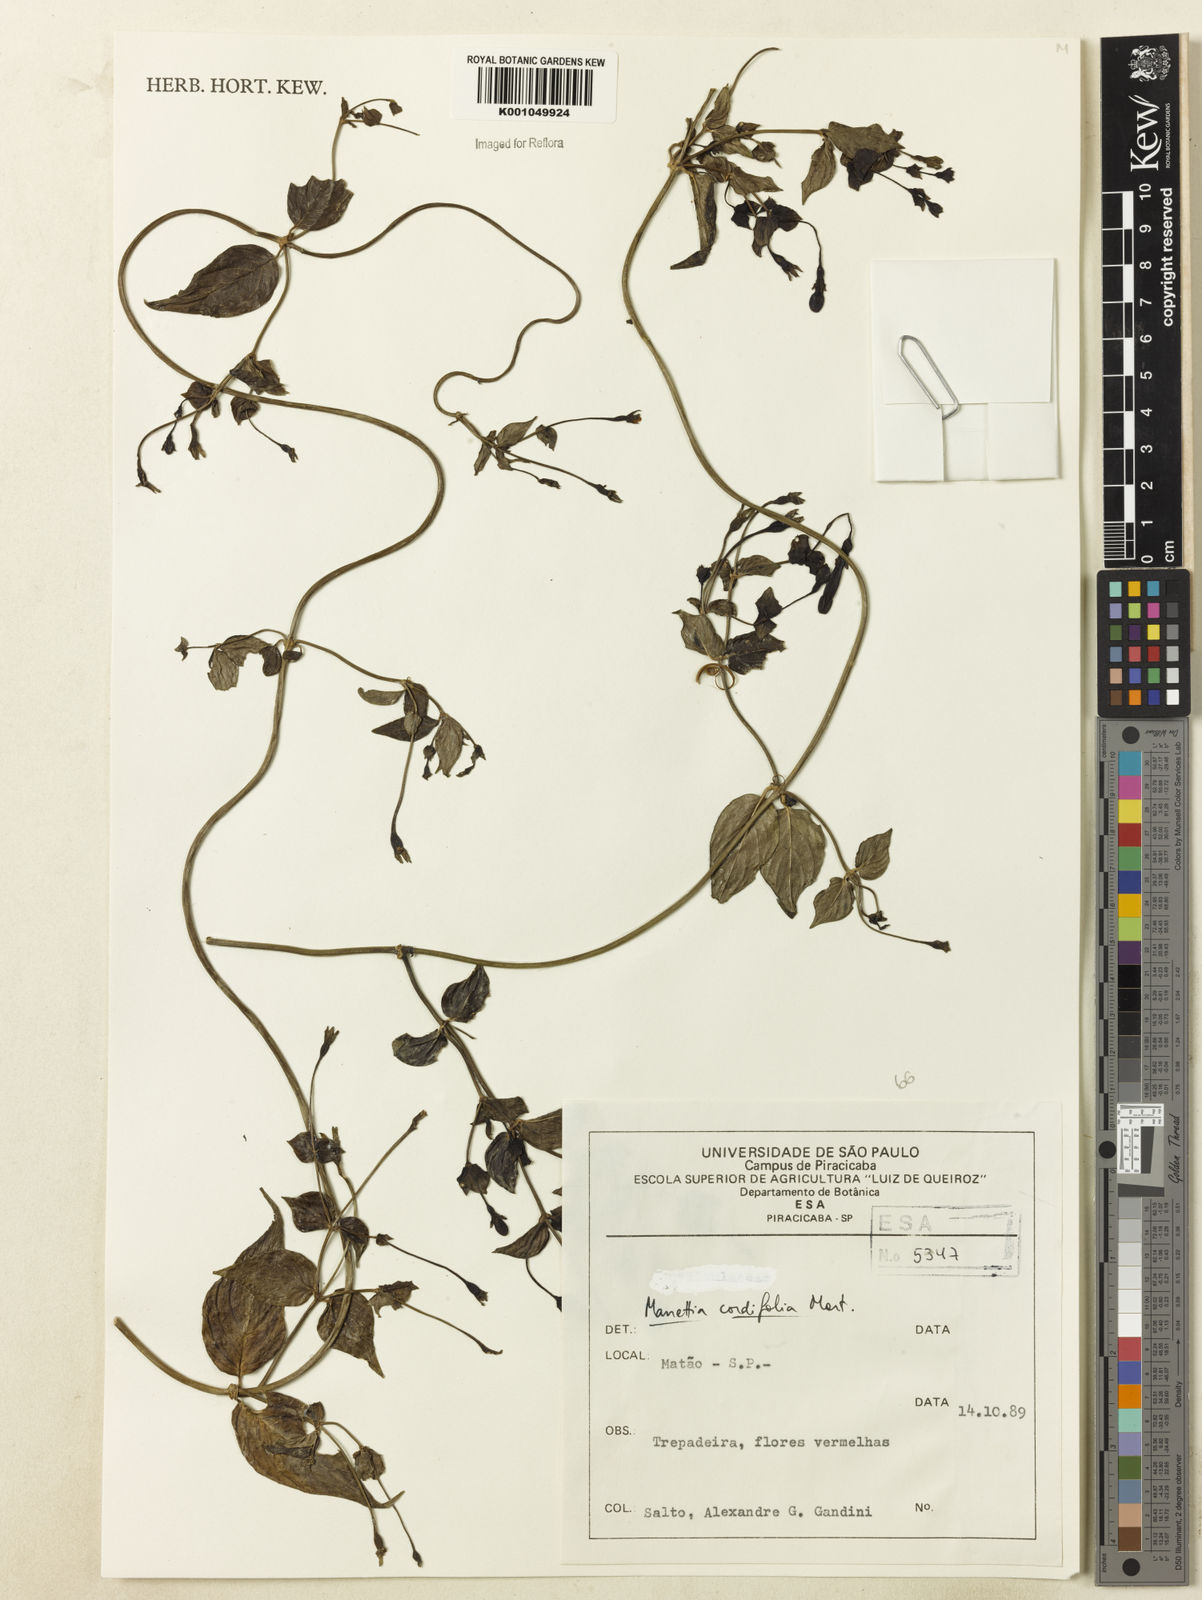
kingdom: Plantae
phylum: Tracheophyta
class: Magnoliopsida
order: Gentianales
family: Rubiaceae
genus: Manettia
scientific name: Manettia cordifolia
